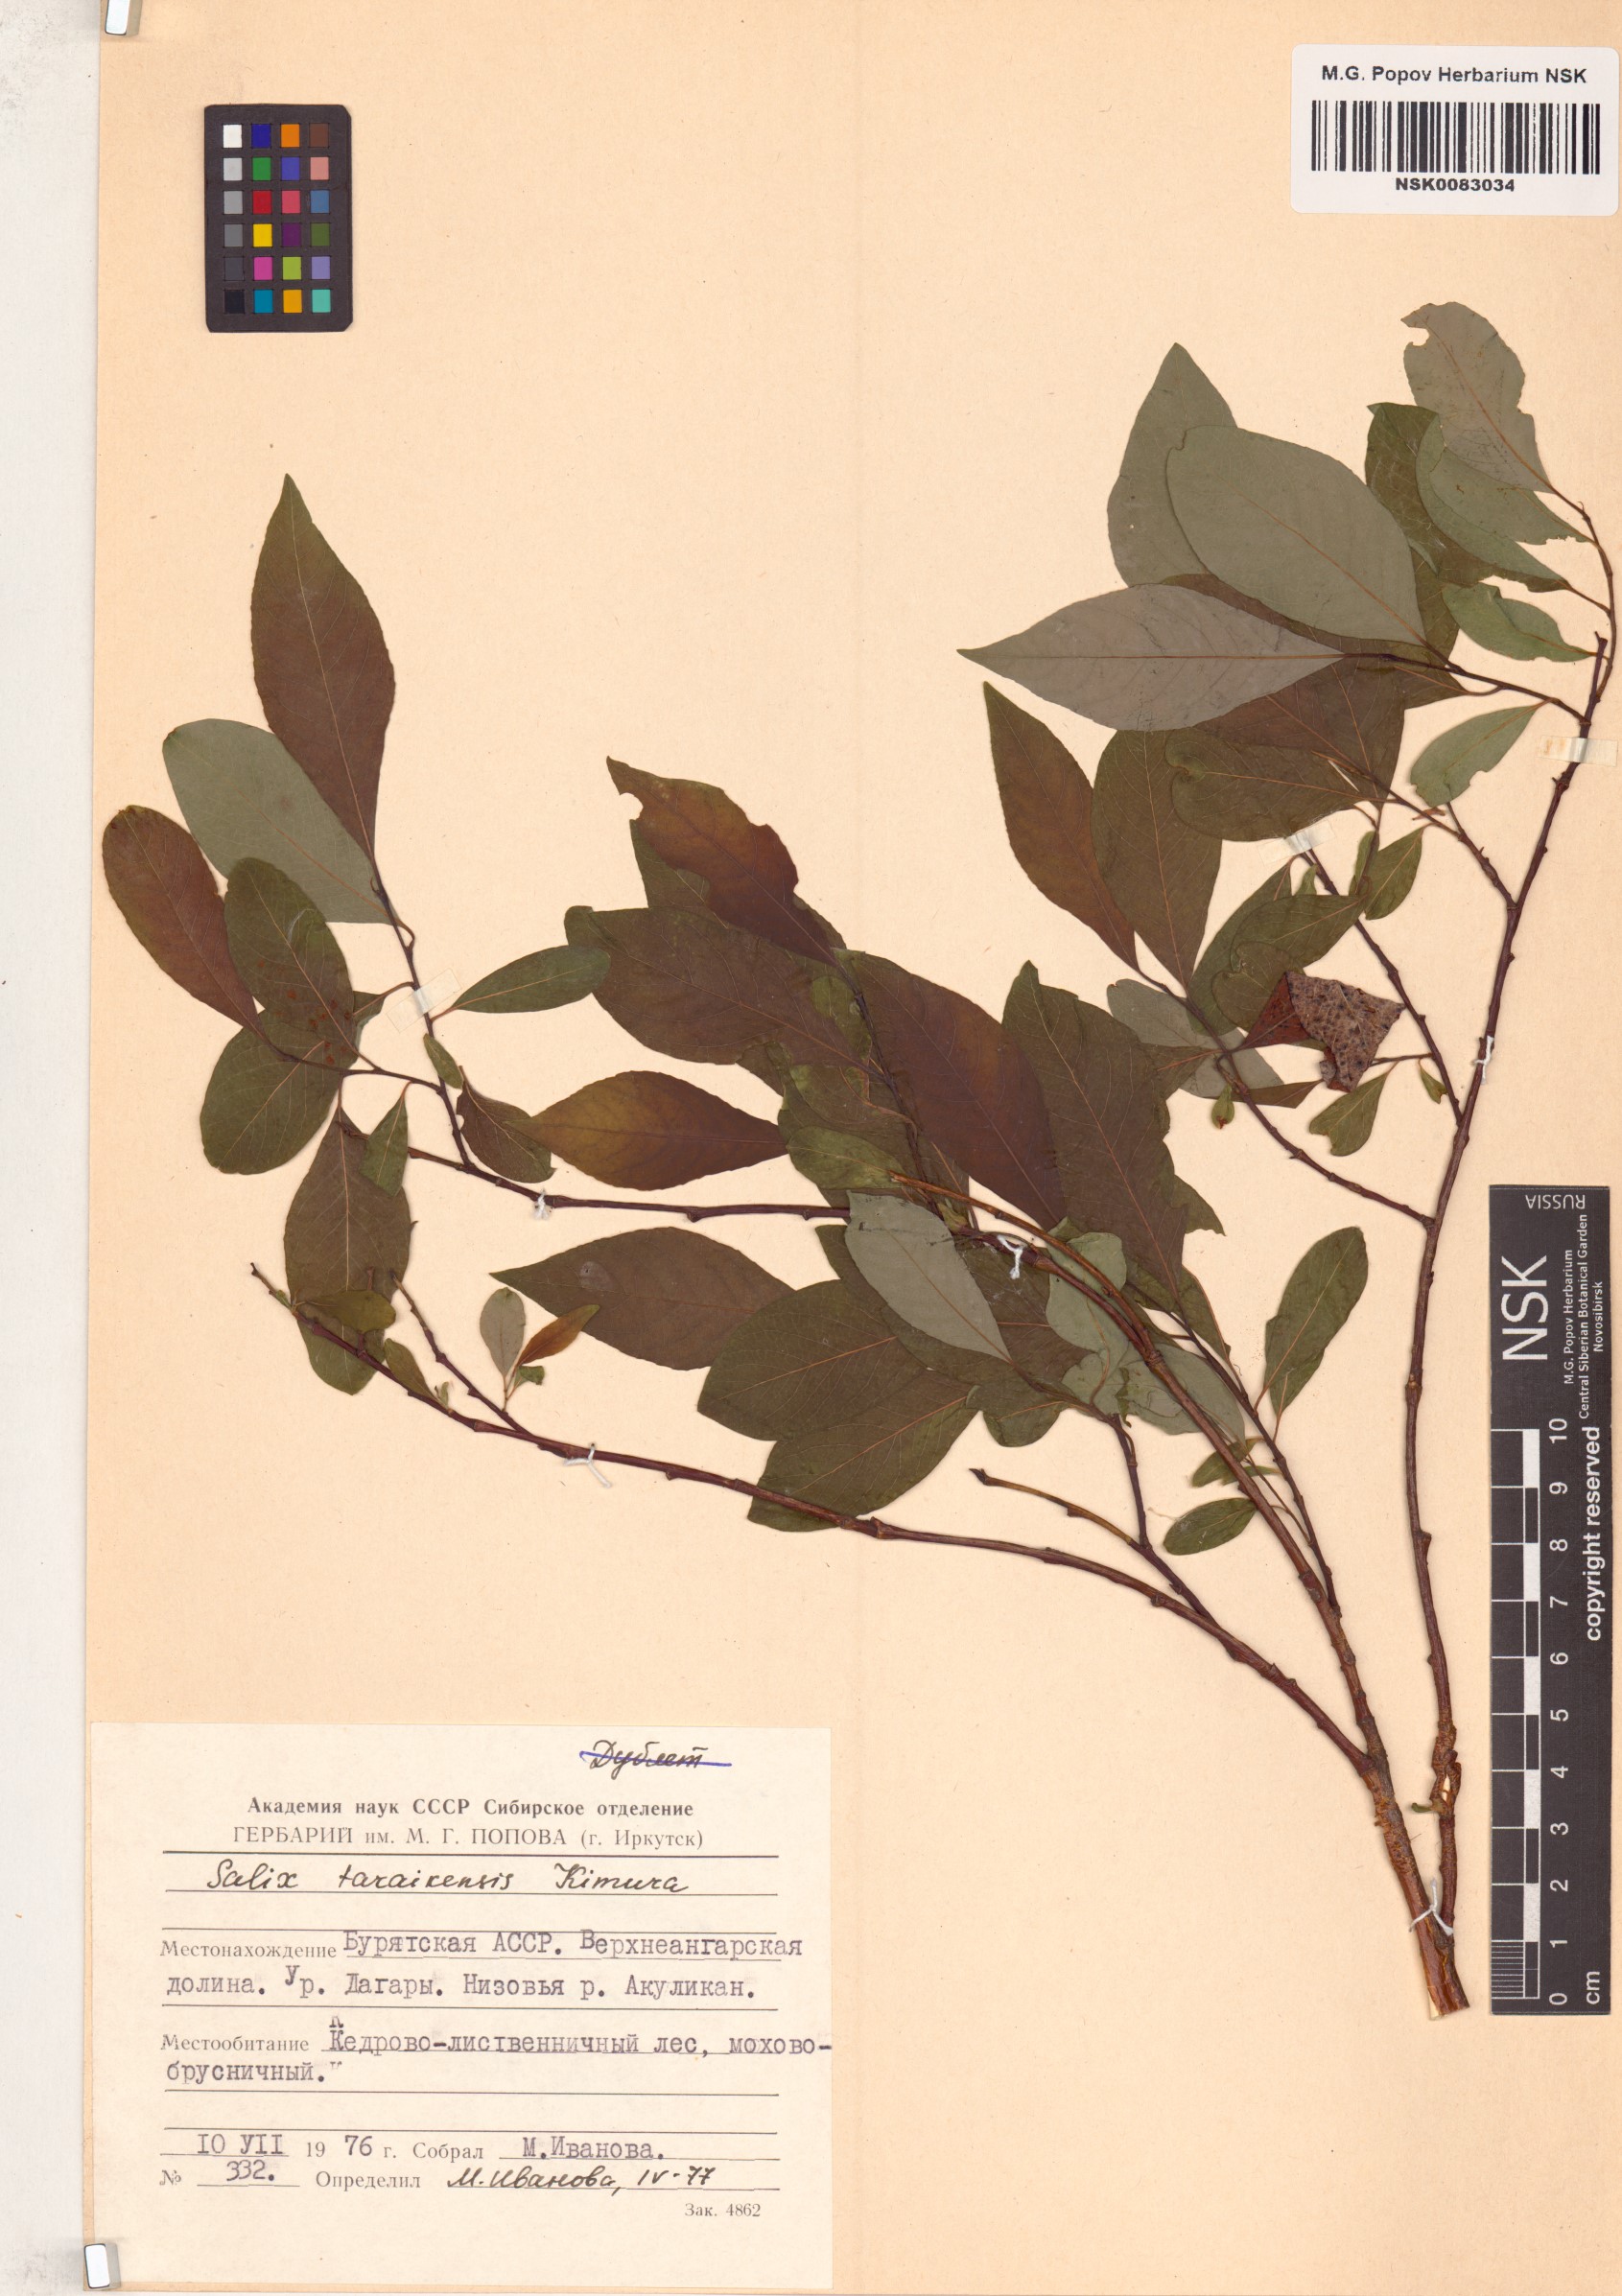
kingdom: Plantae
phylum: Tracheophyta
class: Magnoliopsida
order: Malpighiales
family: Salicaceae
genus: Salix
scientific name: Salix taraikensis
